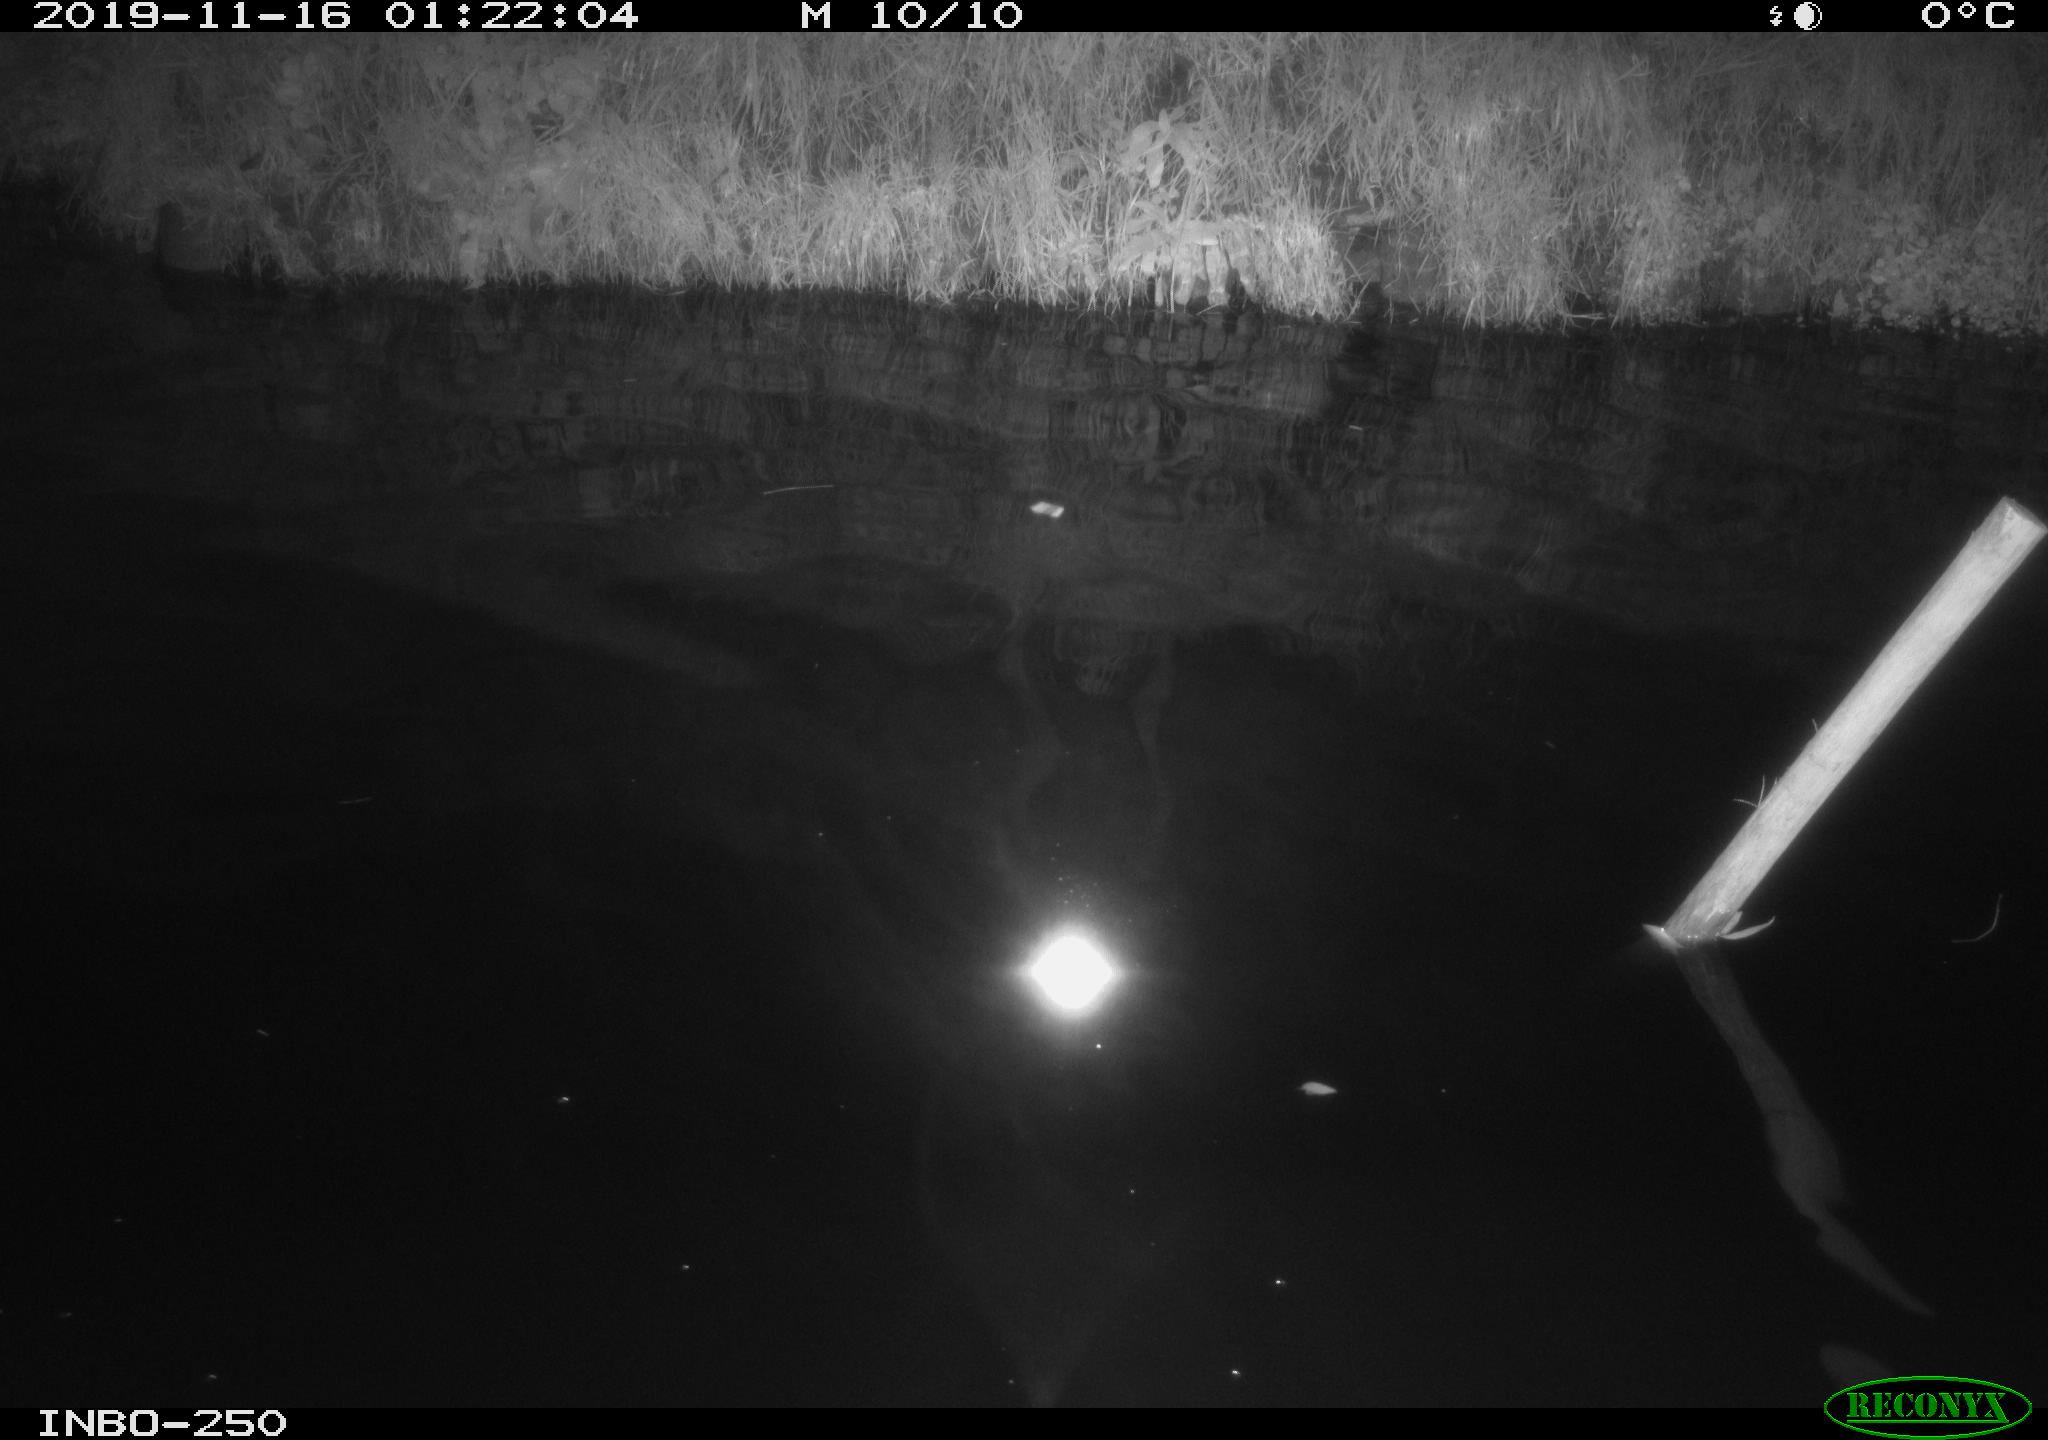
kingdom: Animalia
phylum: Chordata
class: Aves
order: Anseriformes
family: Anatidae
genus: Anas
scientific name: Anas platyrhynchos
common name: Mallard
